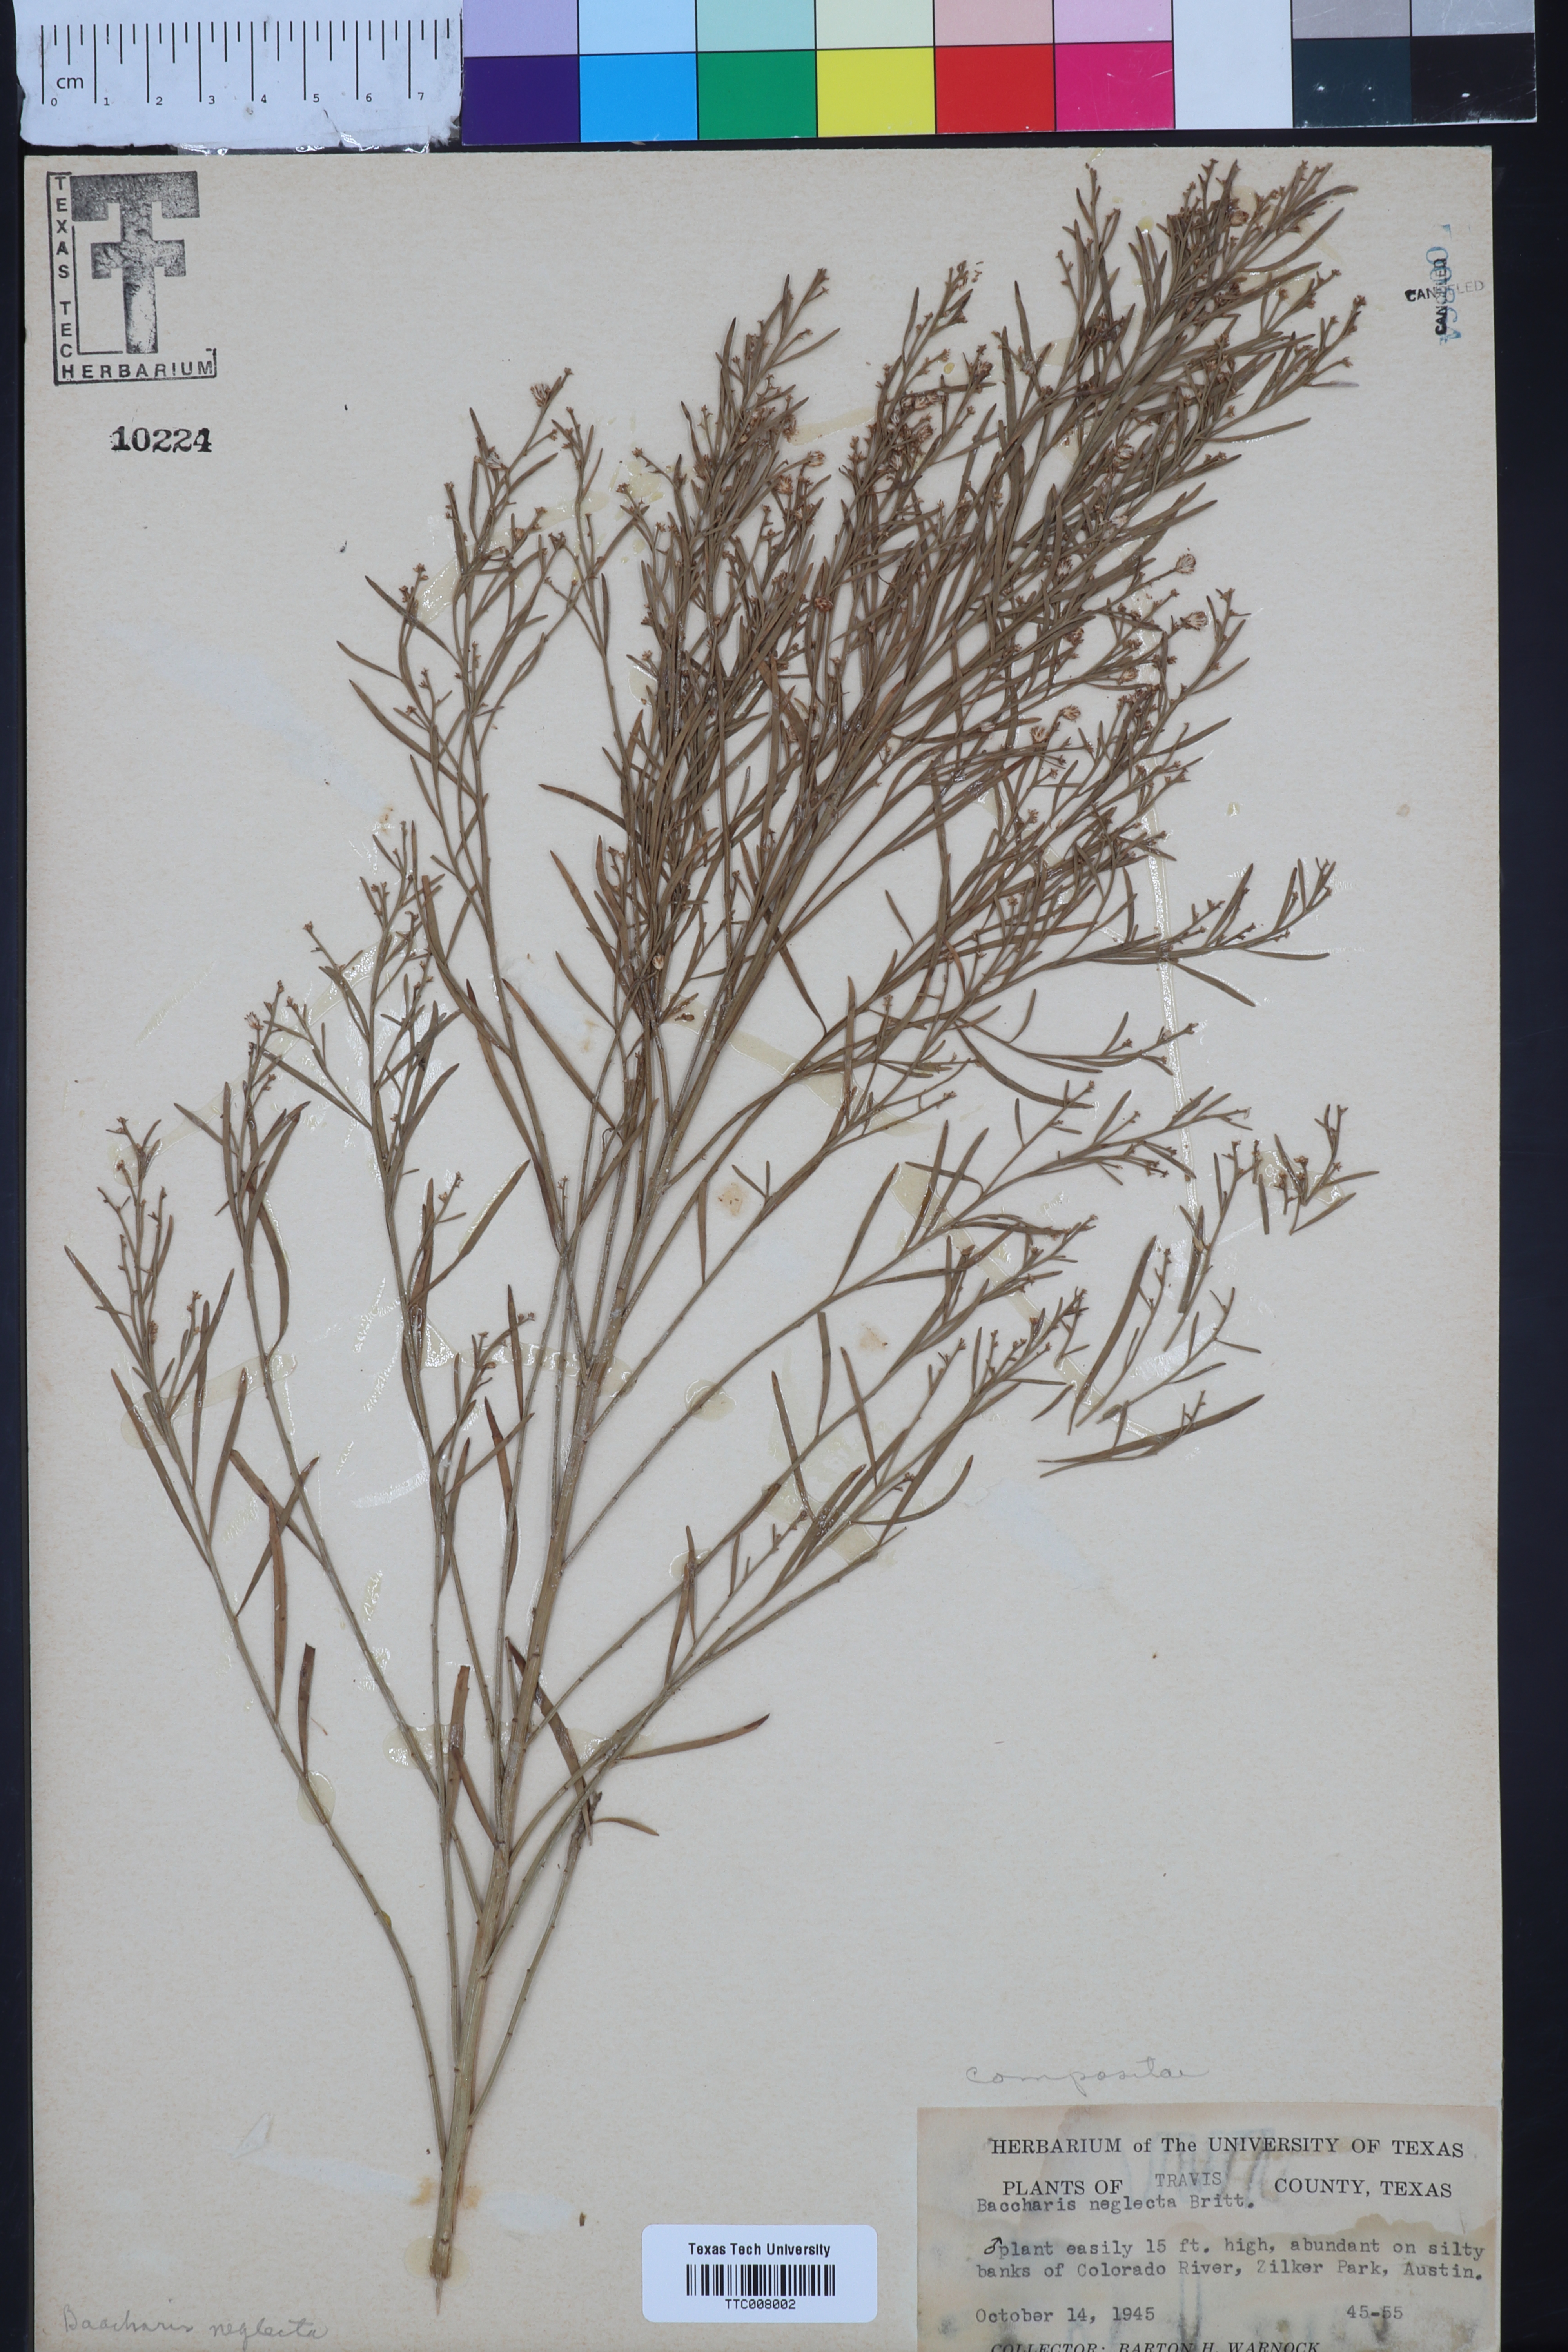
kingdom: Plantae
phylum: Tracheophyta
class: Magnoliopsida
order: Asterales
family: Asteraceae
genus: Baccharis
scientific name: Baccharis neglecta
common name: Roosevelt-weed
